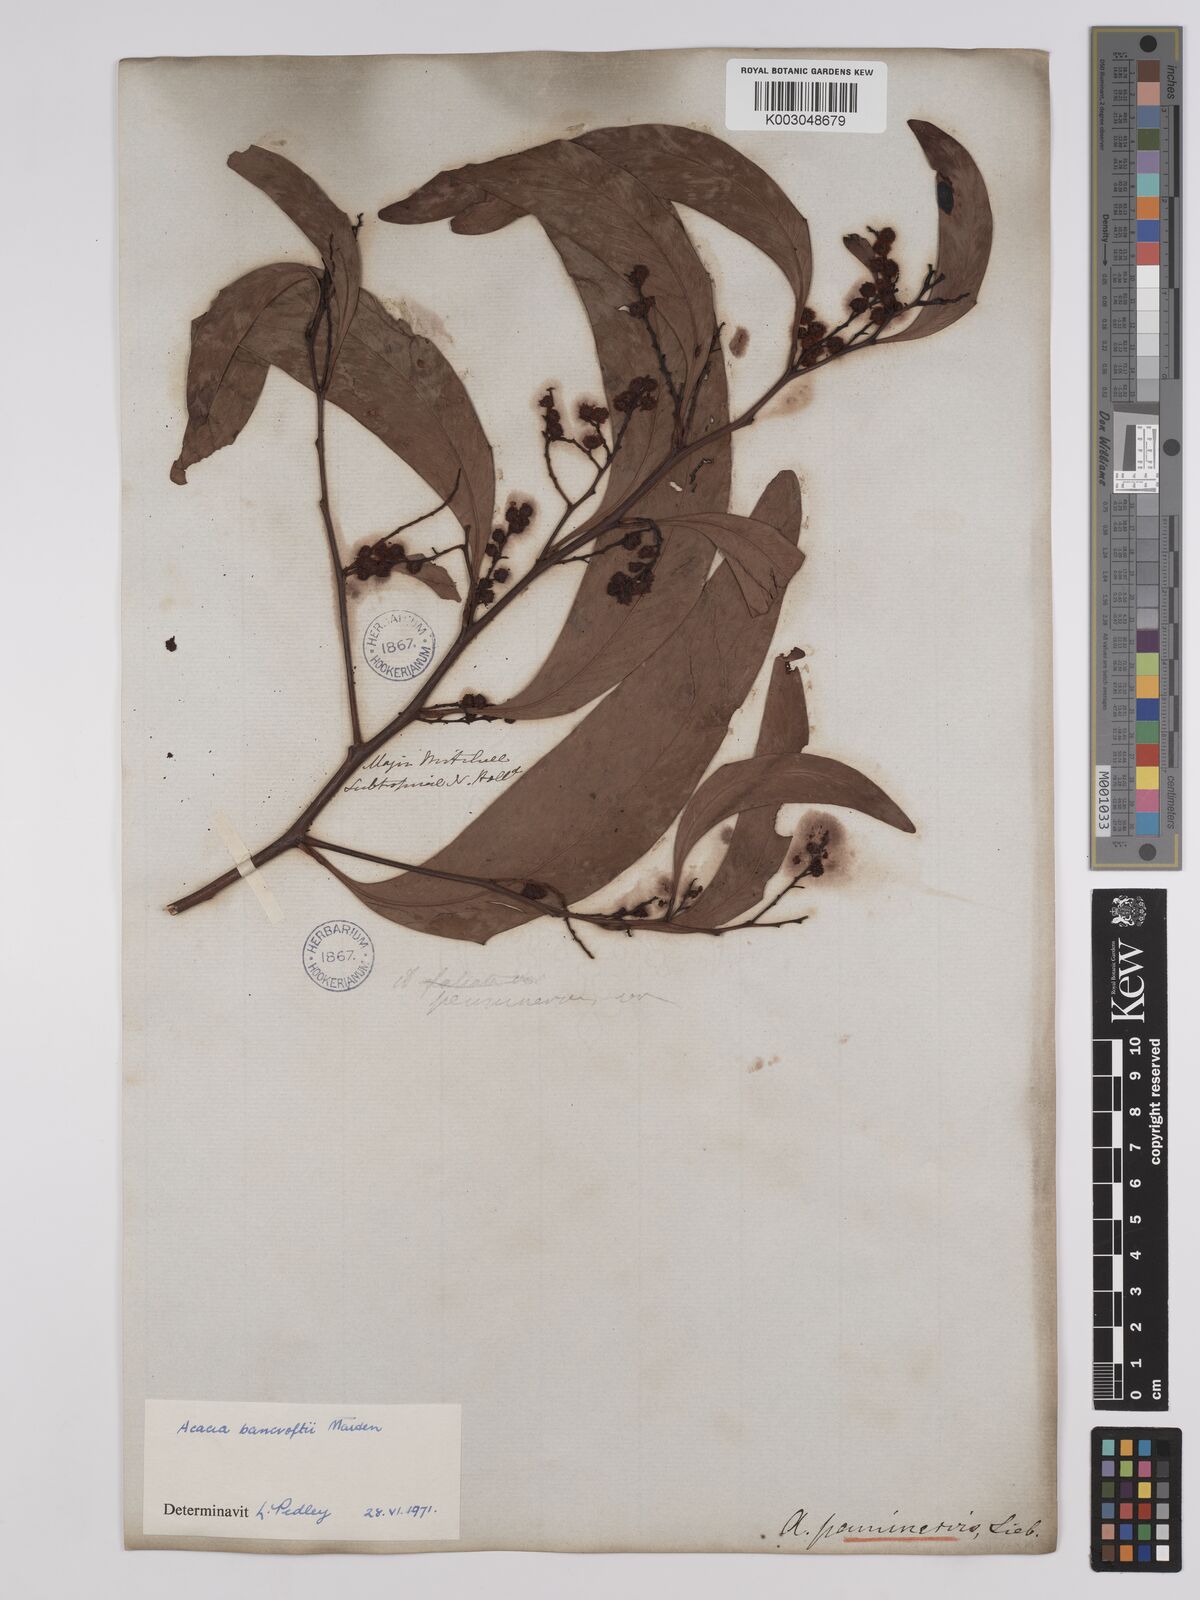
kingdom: Plantae
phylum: Tracheophyta
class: Magnoliopsida
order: Fabales
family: Fabaceae
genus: Acacia
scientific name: Acacia
